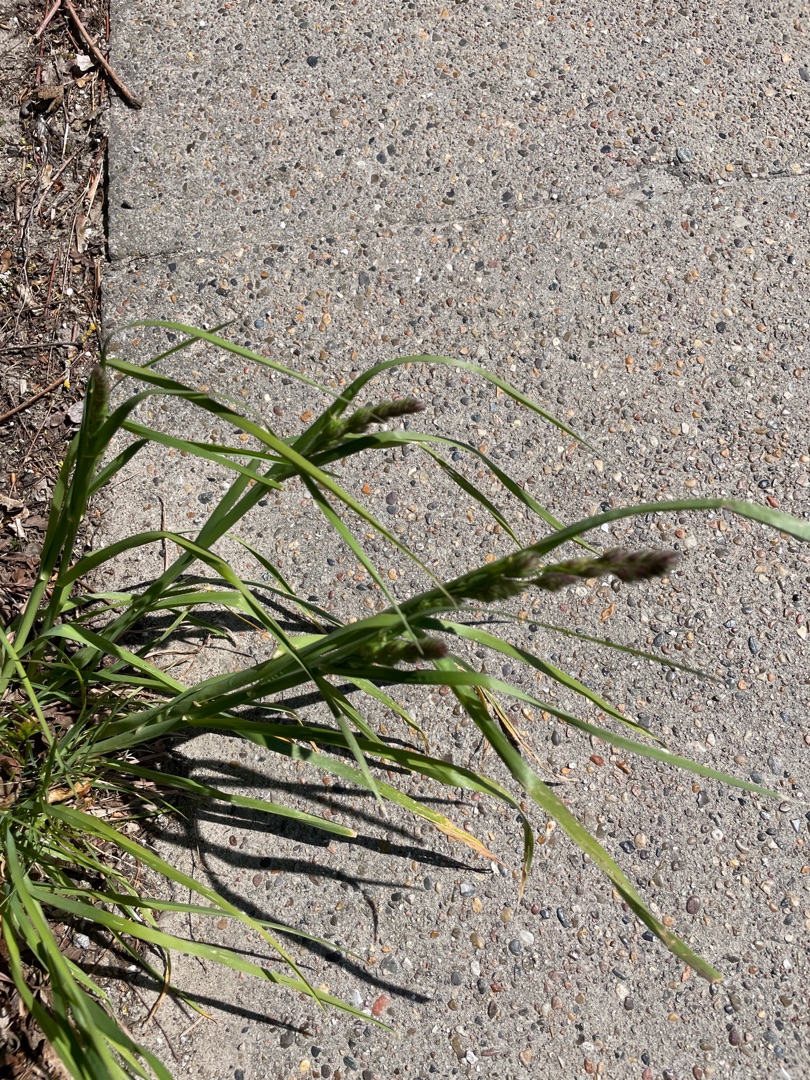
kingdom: Plantae
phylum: Tracheophyta
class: Liliopsida
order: Poales
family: Poaceae
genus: Dactylis
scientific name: Dactylis glomerata
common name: Almindelig hundegræs
